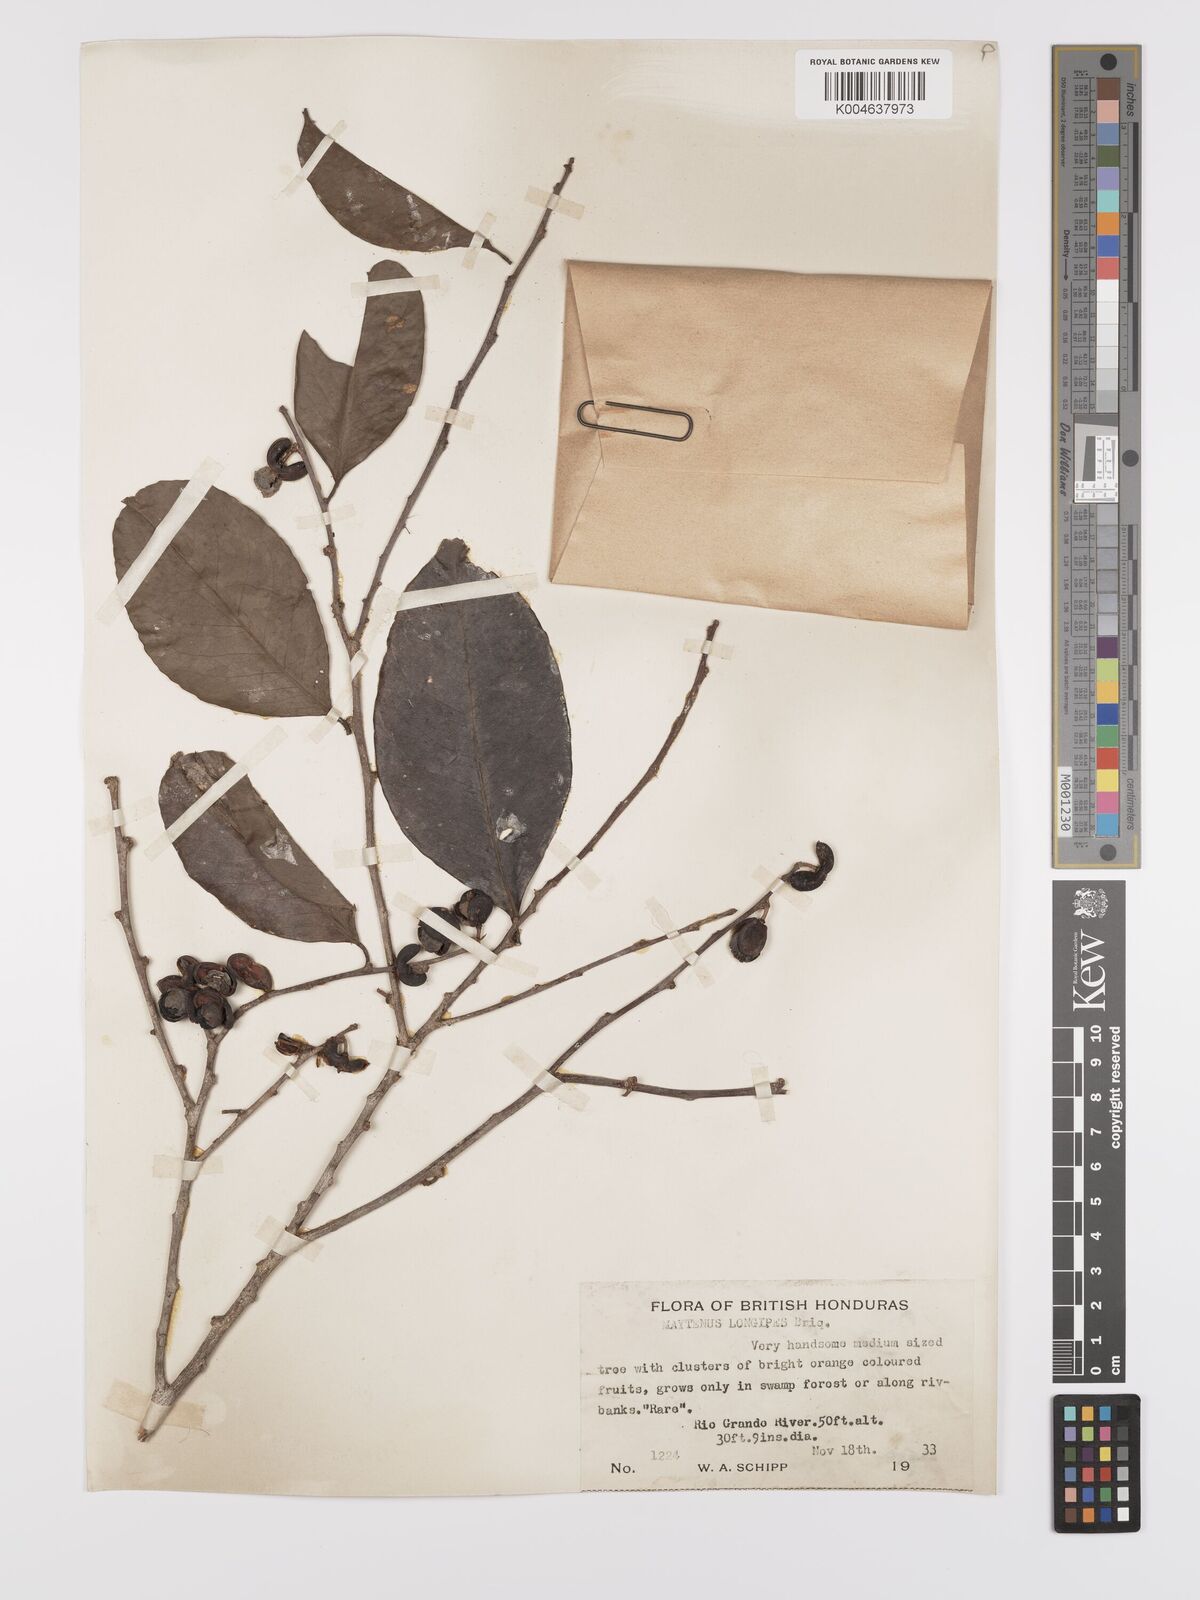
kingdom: Plantae
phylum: Tracheophyta
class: Magnoliopsida
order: Celastrales
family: Celastraceae
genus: Maytenus
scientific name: Maytenus longipes
